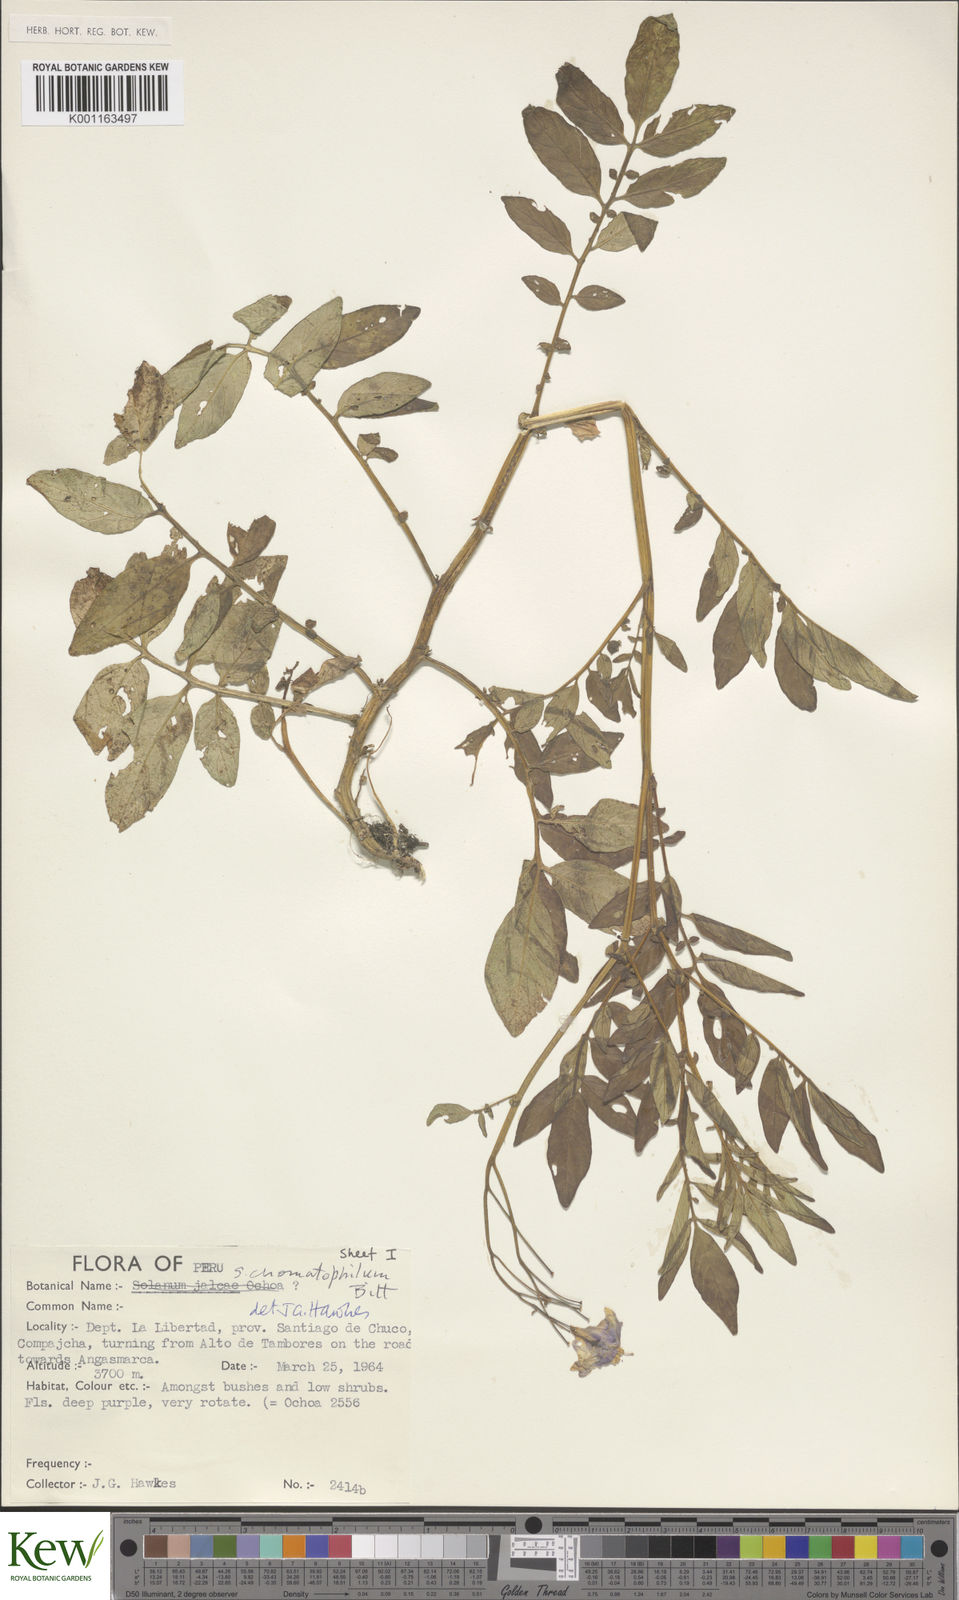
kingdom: Plantae
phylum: Tracheophyta
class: Magnoliopsida
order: Solanales
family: Solanaceae
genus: Solanum
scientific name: Solanum chomatophilum
